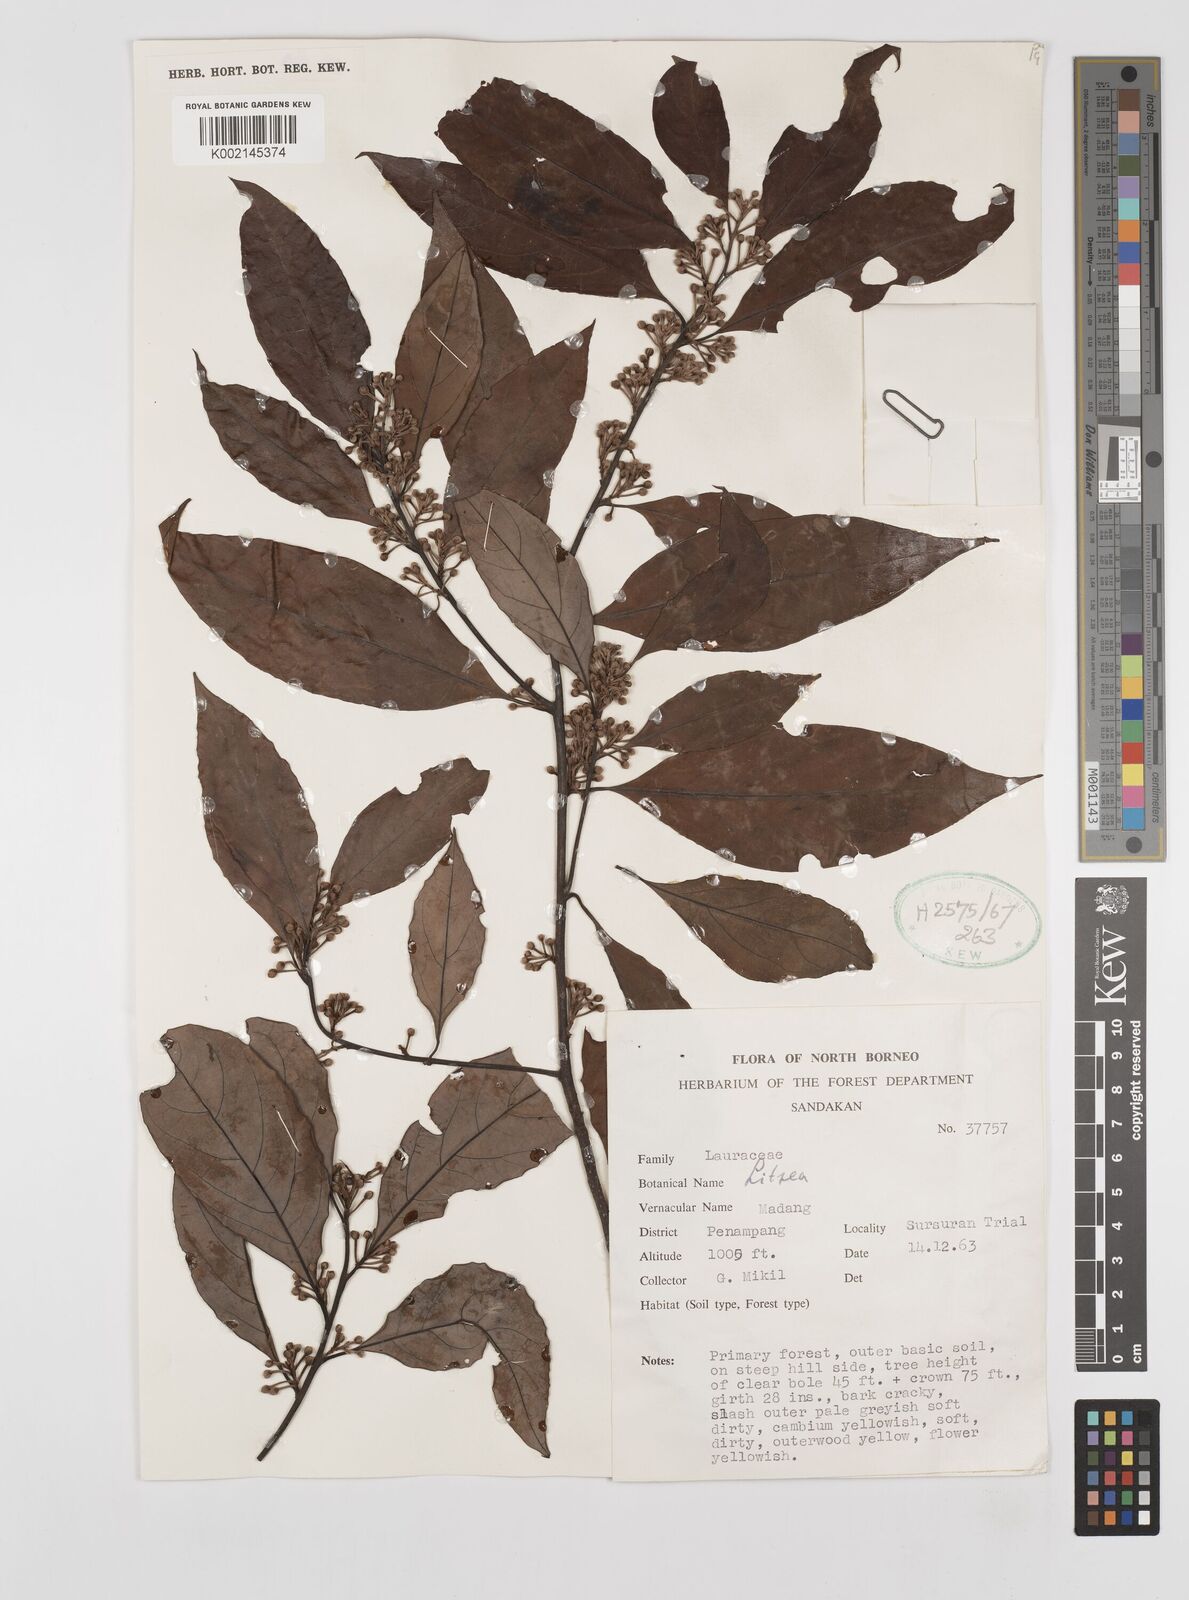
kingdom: Plantae
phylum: Tracheophyta
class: Magnoliopsida
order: Laurales
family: Lauraceae
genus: Litsea
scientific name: Litsea
